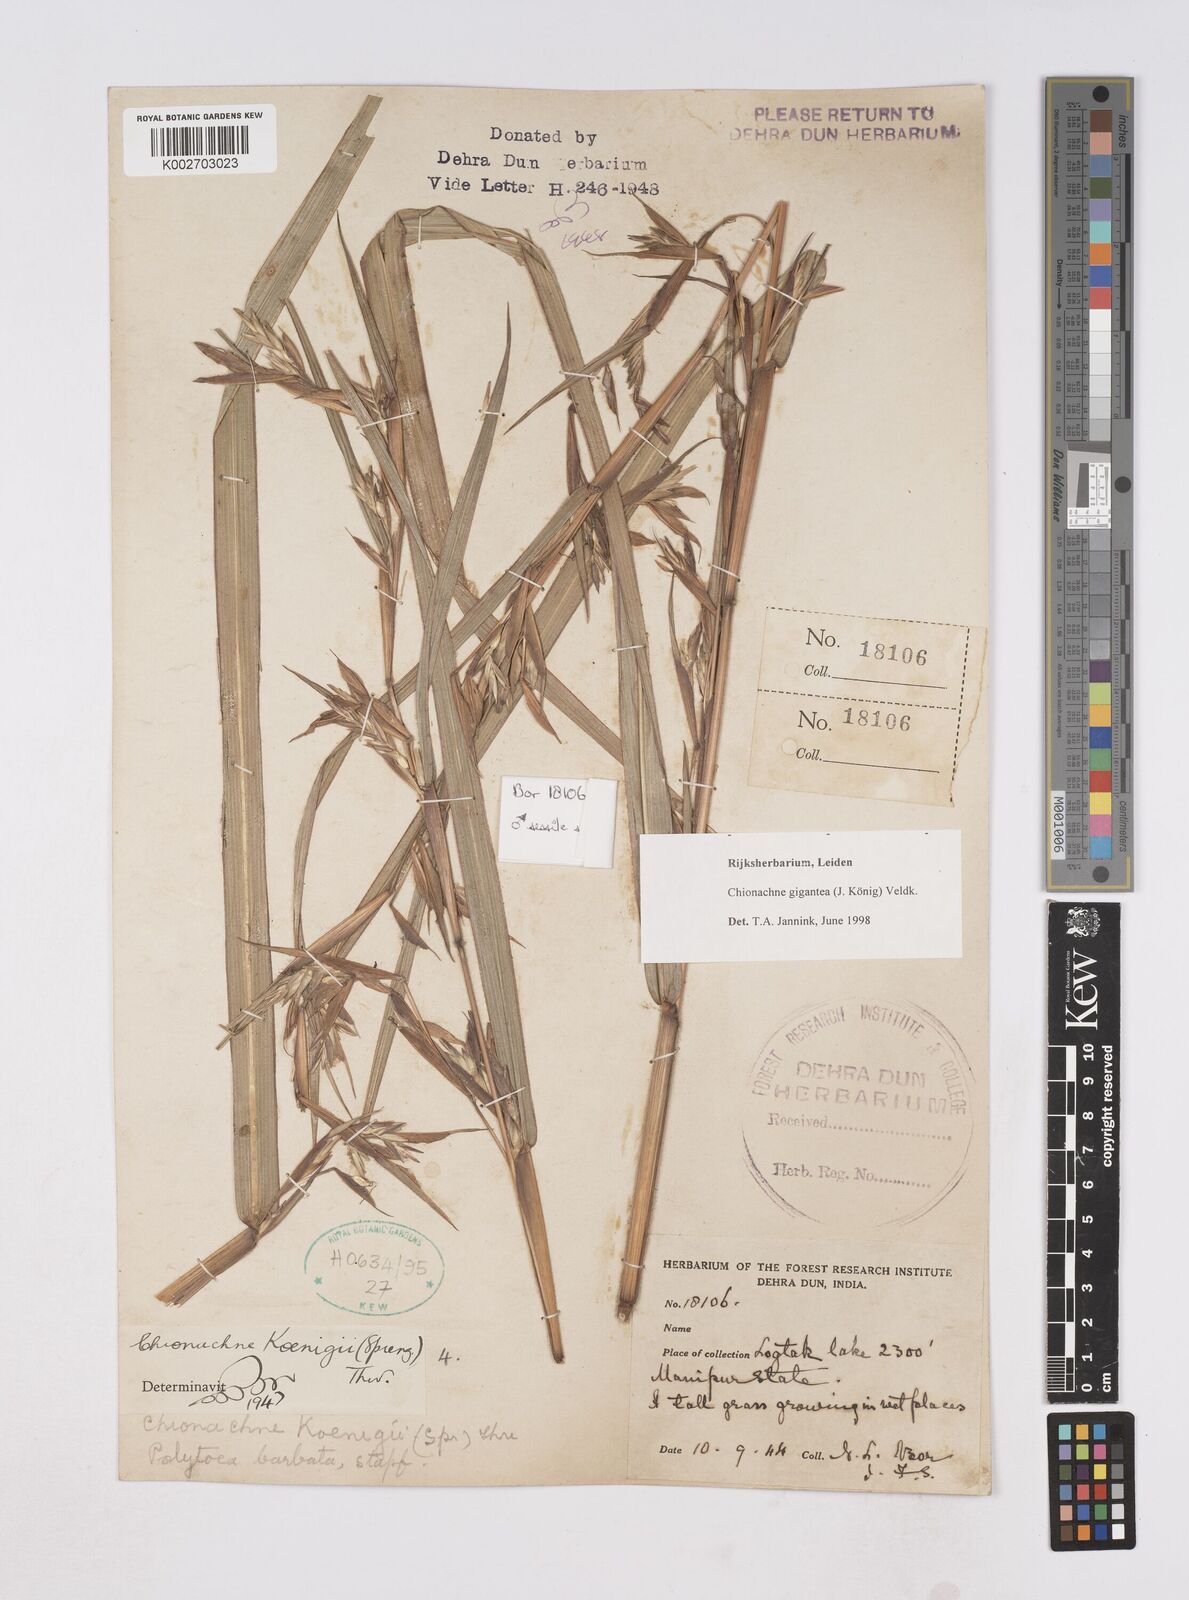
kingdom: Plantae
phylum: Tracheophyta
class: Liliopsida
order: Poales
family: Poaceae
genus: Polytoca
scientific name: Polytoca gigantea
